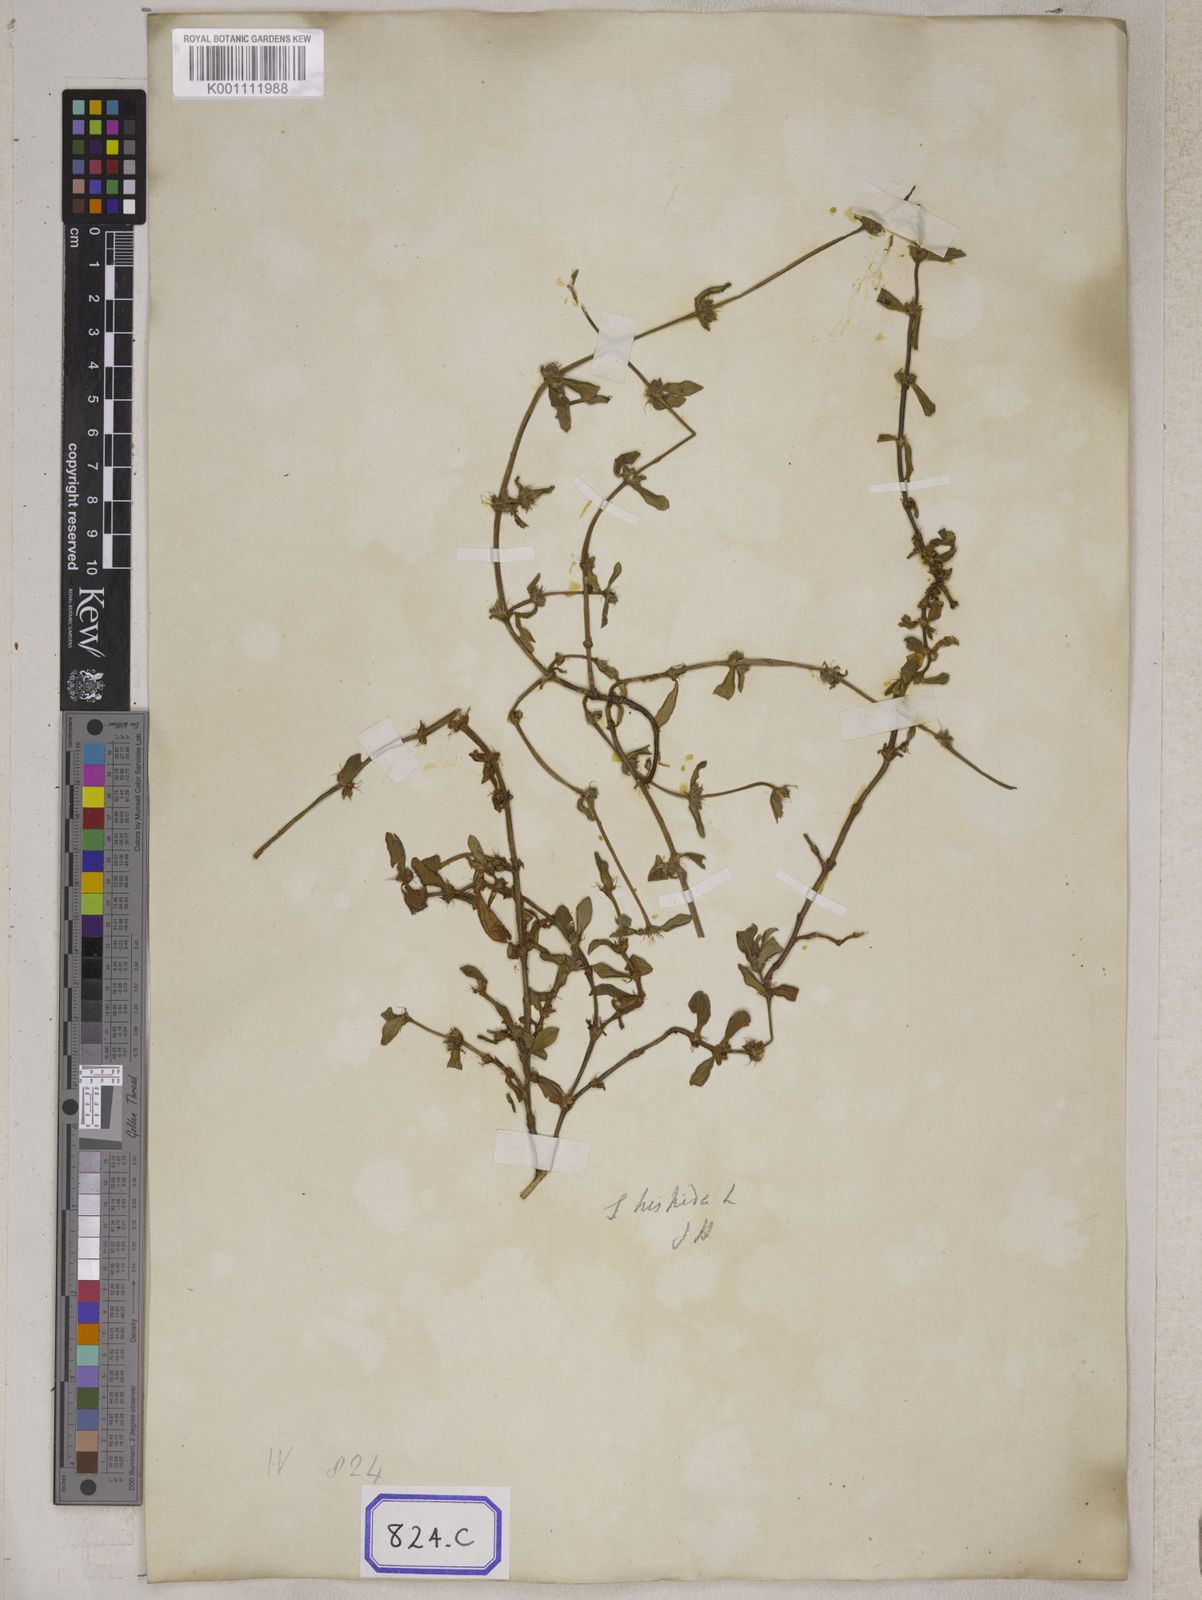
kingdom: Plantae
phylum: Tracheophyta
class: Magnoliopsida
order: Gentianales
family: Rubiaceae
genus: Spermacoce
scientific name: Spermacoce
